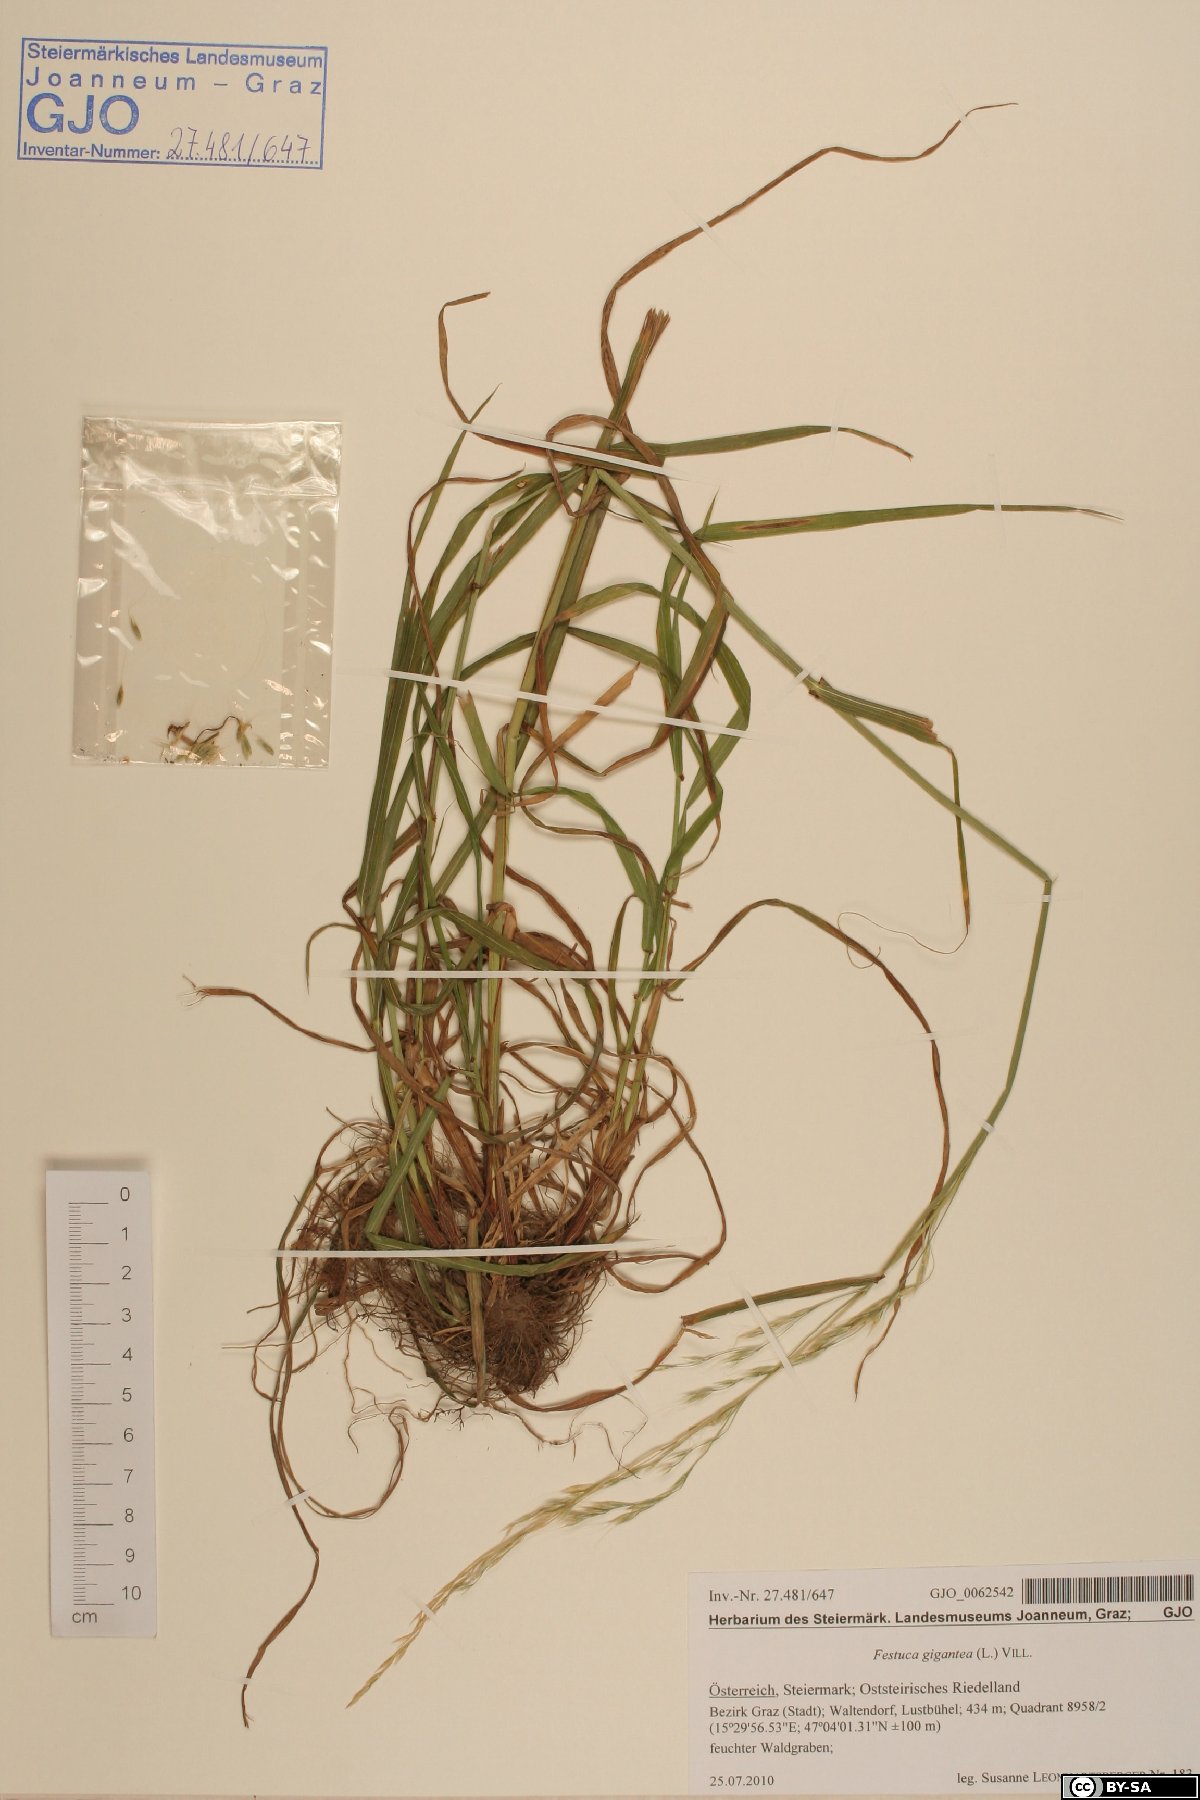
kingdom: Plantae
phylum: Tracheophyta
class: Liliopsida
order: Poales
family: Poaceae
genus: Lolium
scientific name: Lolium giganteum
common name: Giant fescue
